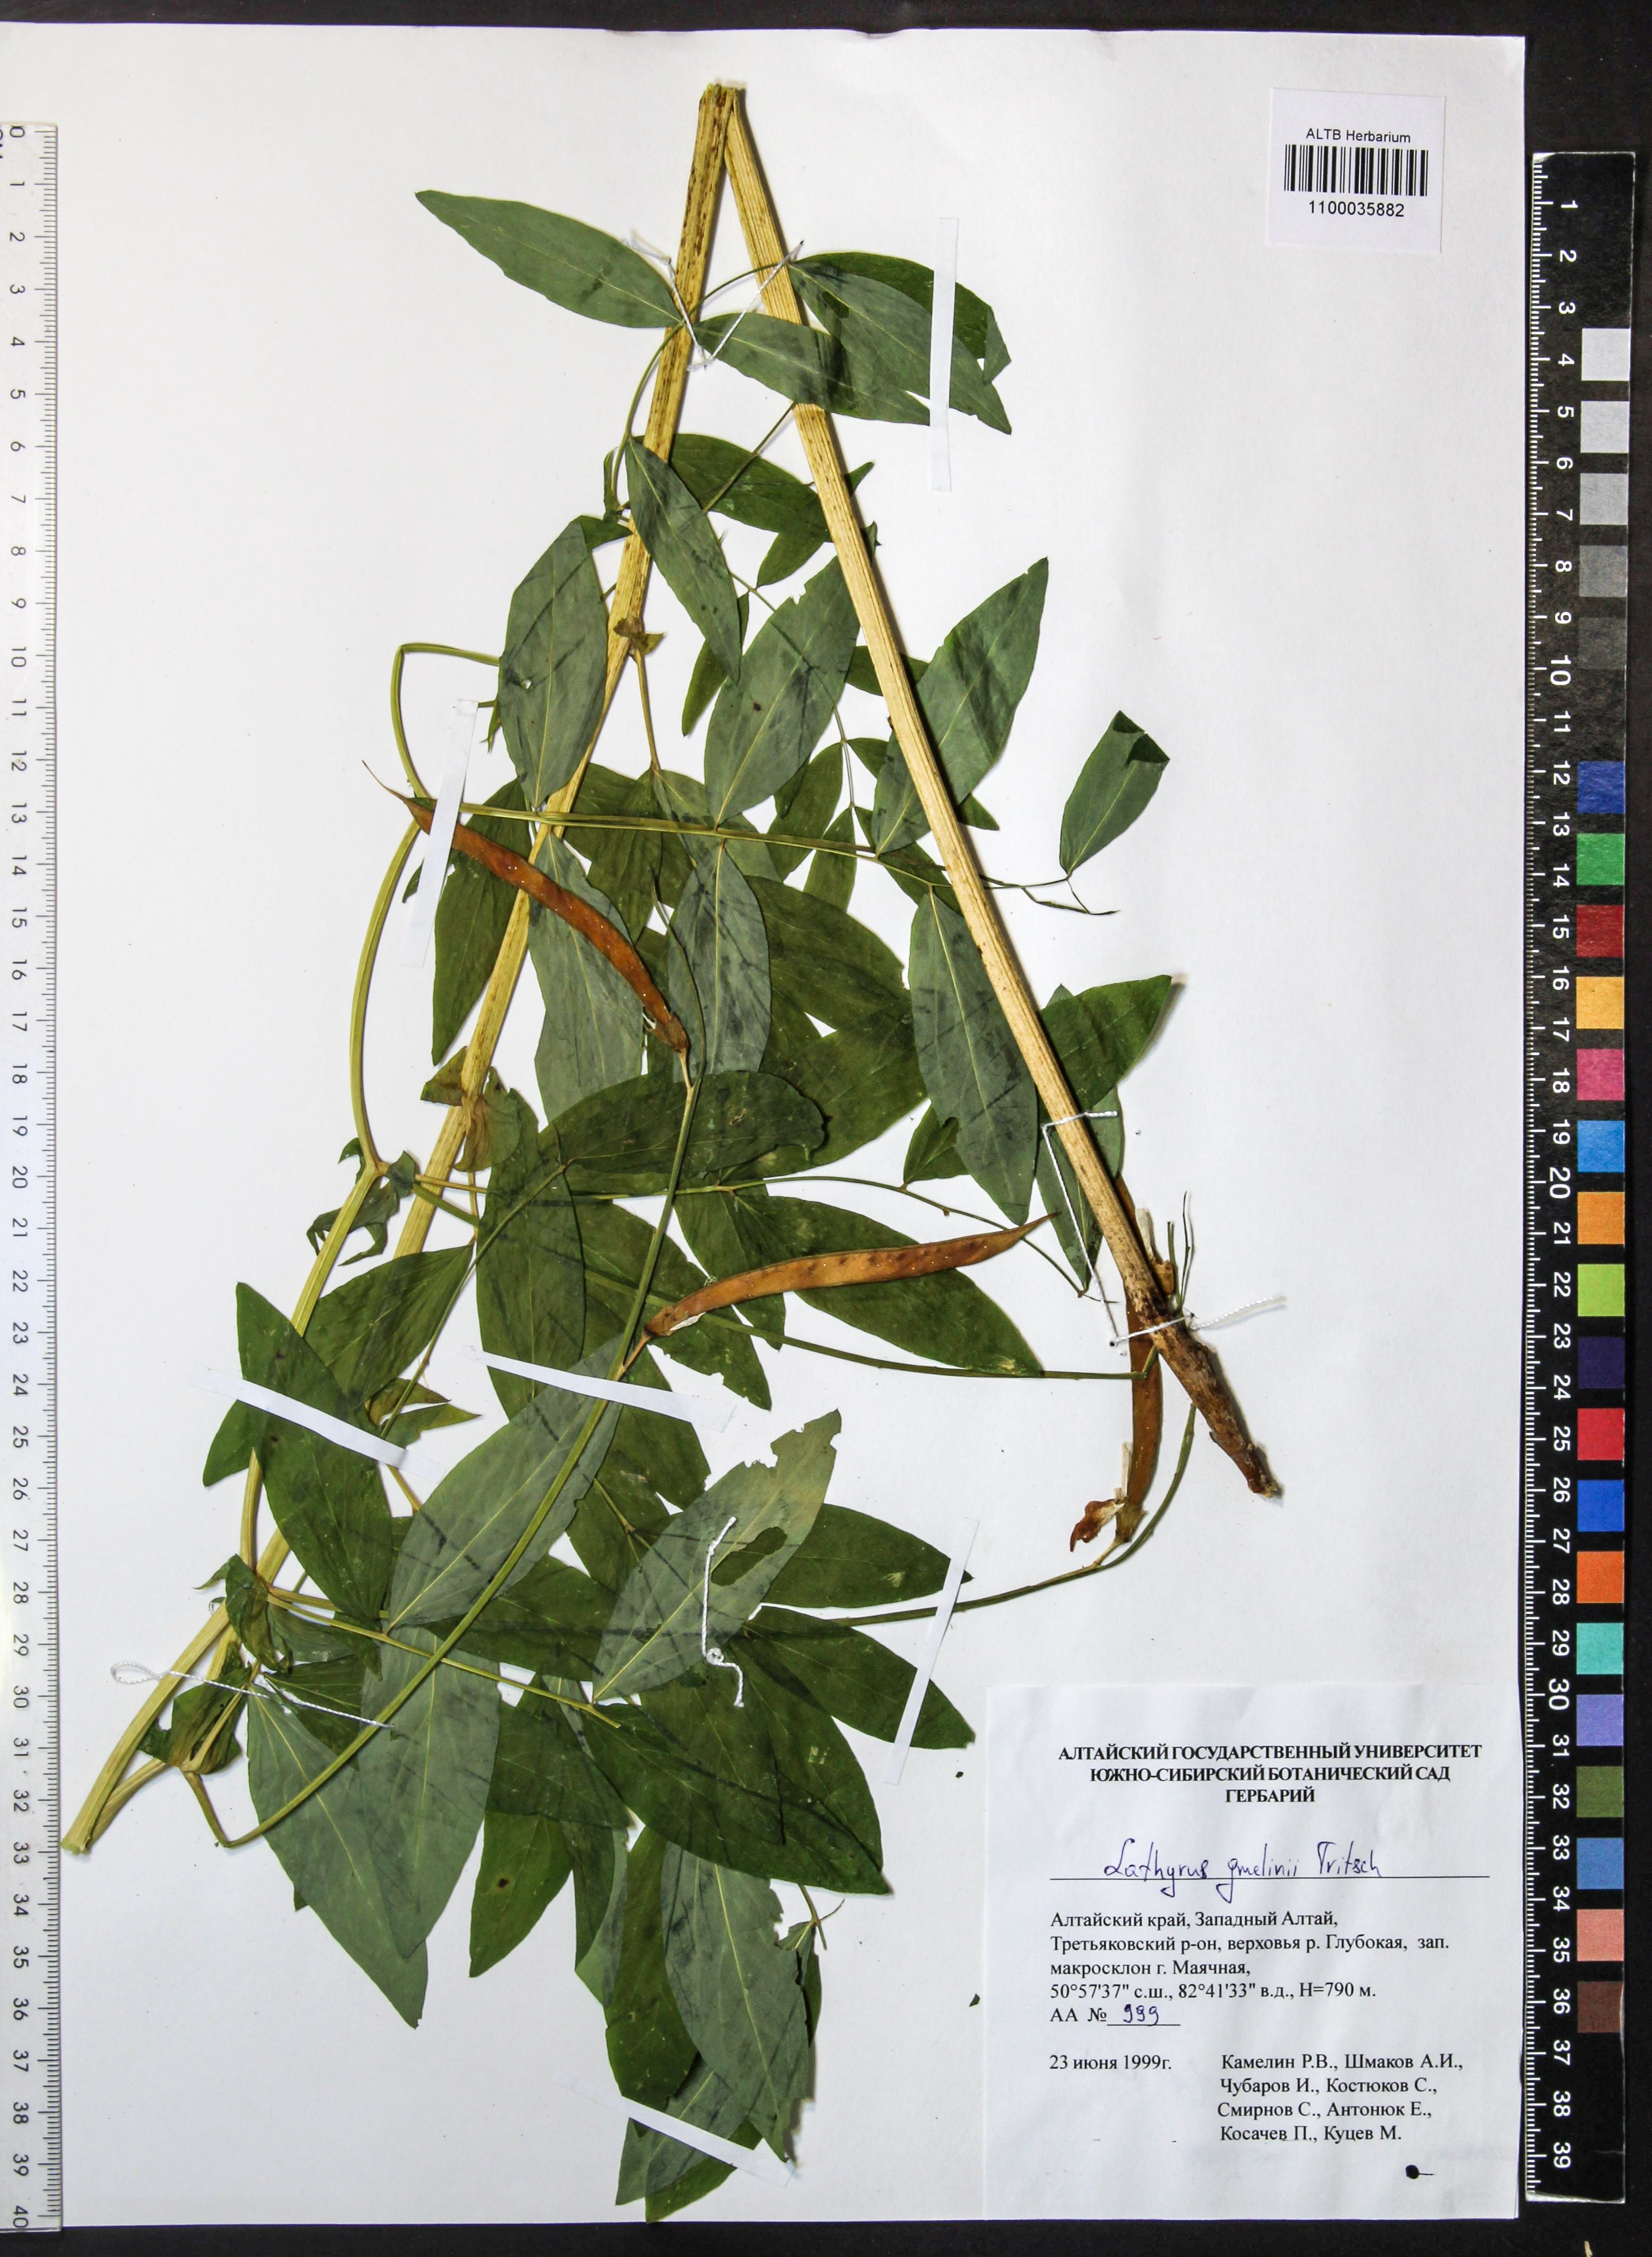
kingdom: Plantae
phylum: Tracheophyta
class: Magnoliopsida
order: Fabales
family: Fabaceae
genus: Lathyrus
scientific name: Lathyrus gmelinii
